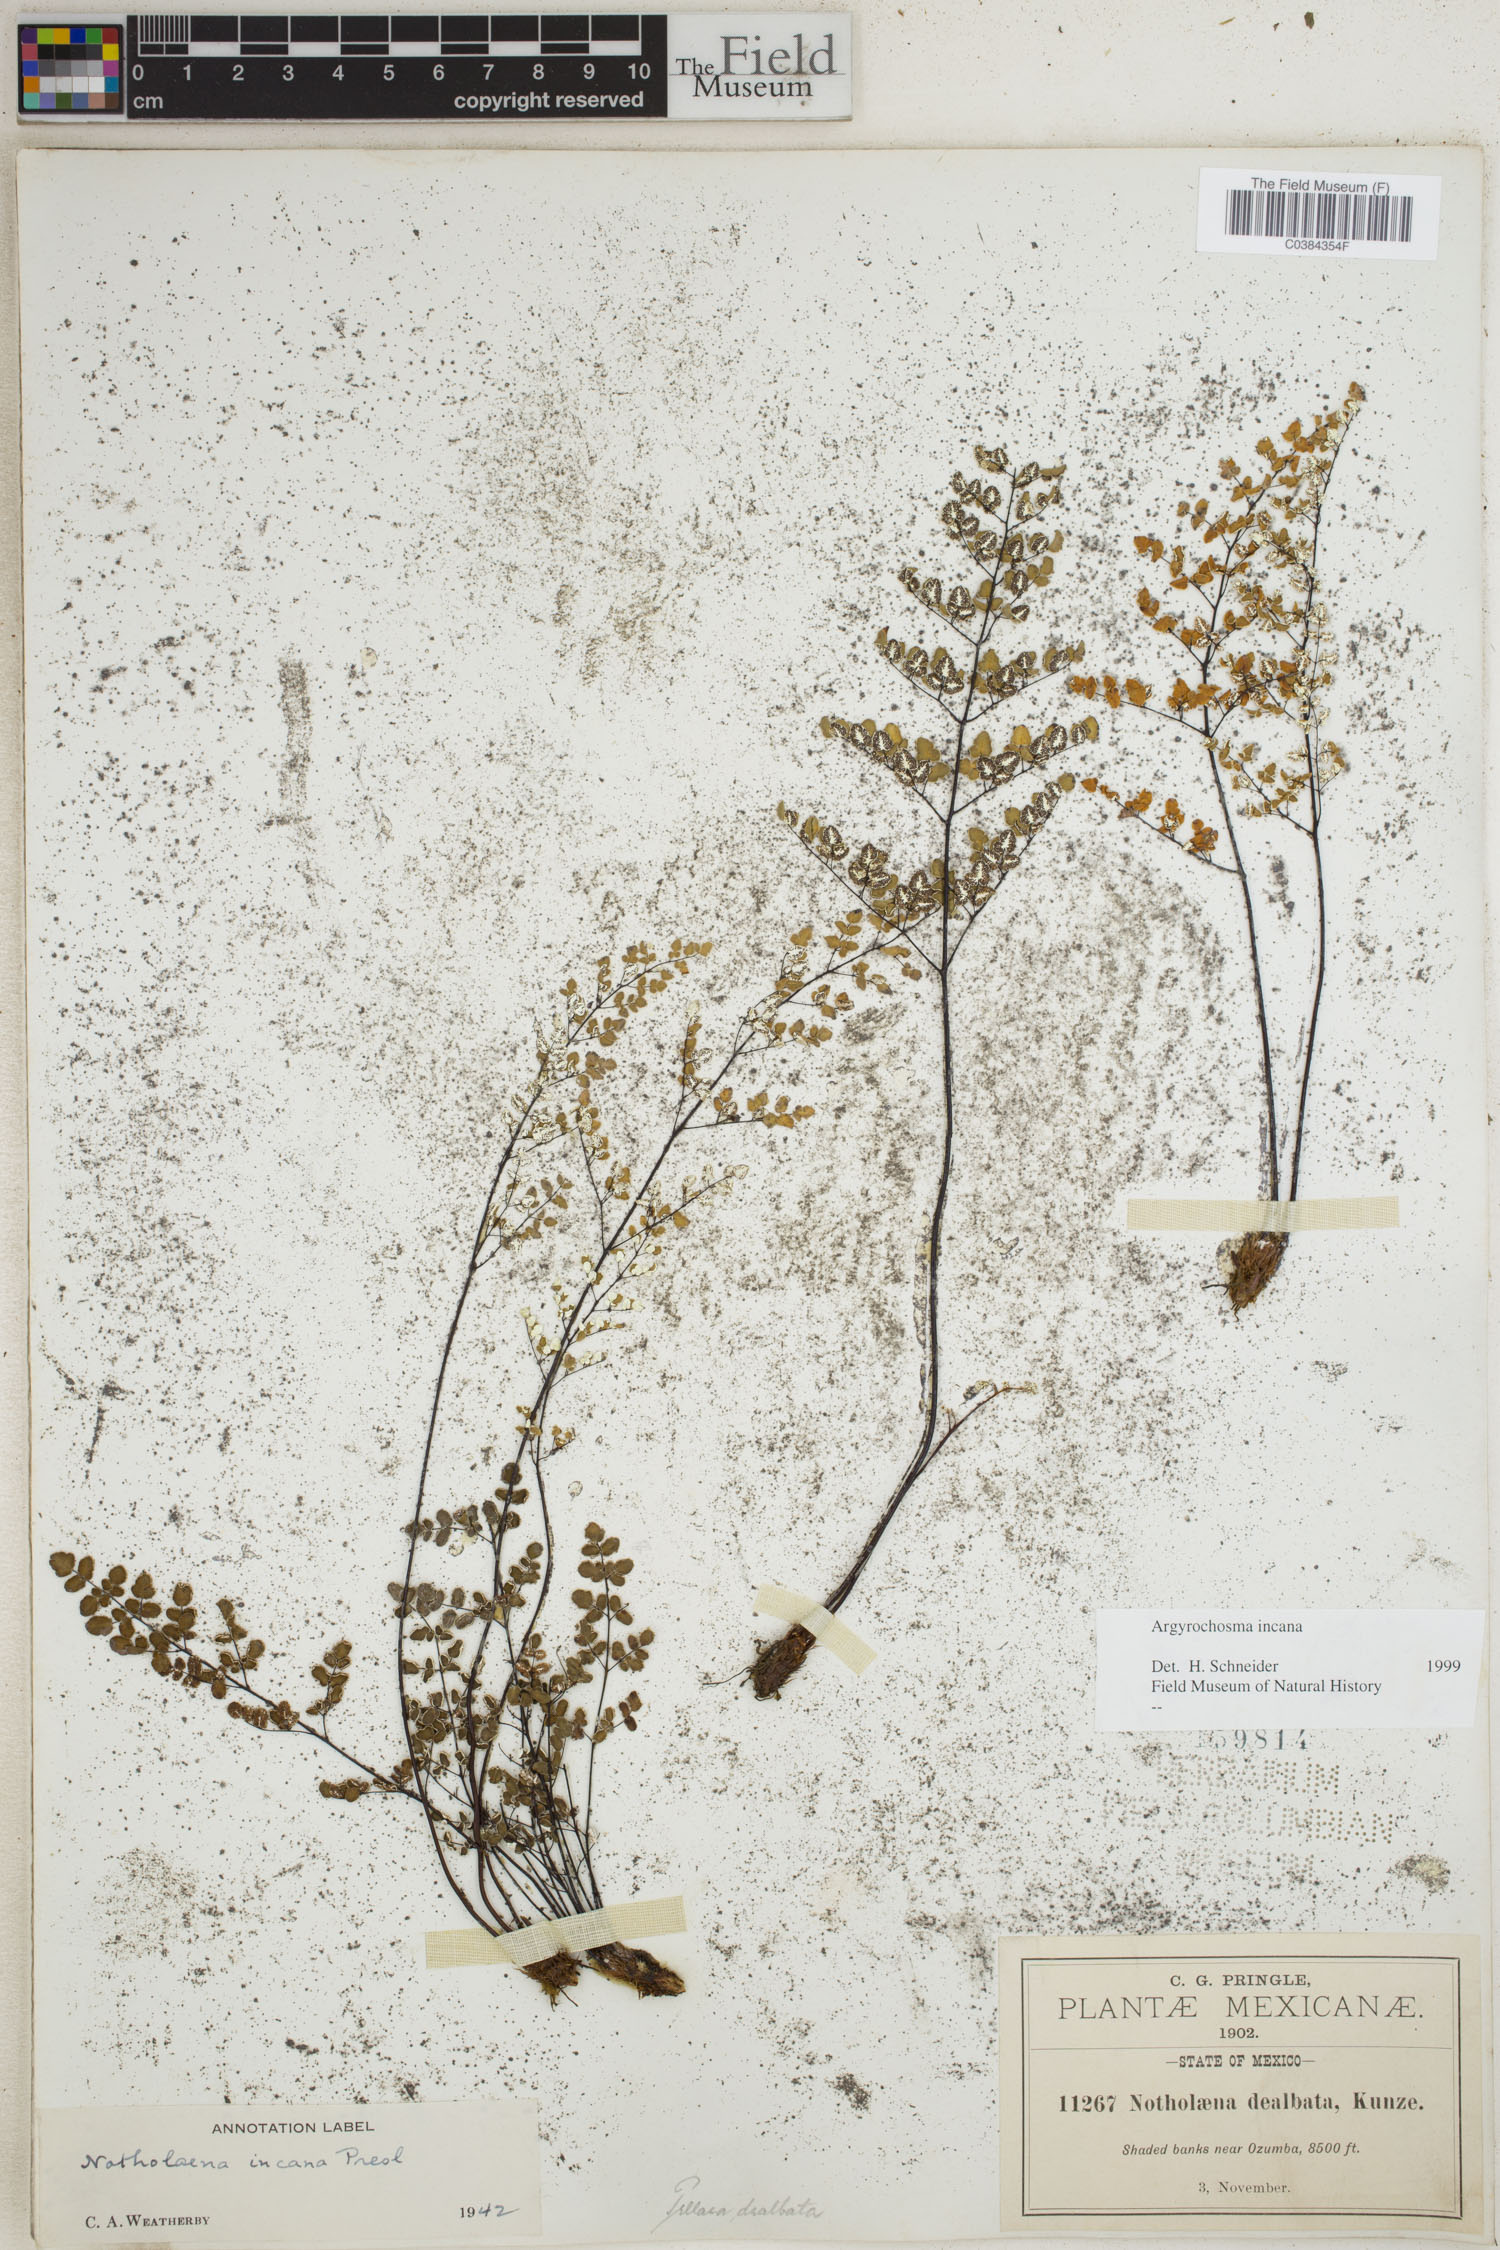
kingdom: Plantae
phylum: Tracheophyta
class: Polypodiopsida
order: Polypodiales
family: Pteridaceae
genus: Argyrochosma
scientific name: Argyrochosma incana
